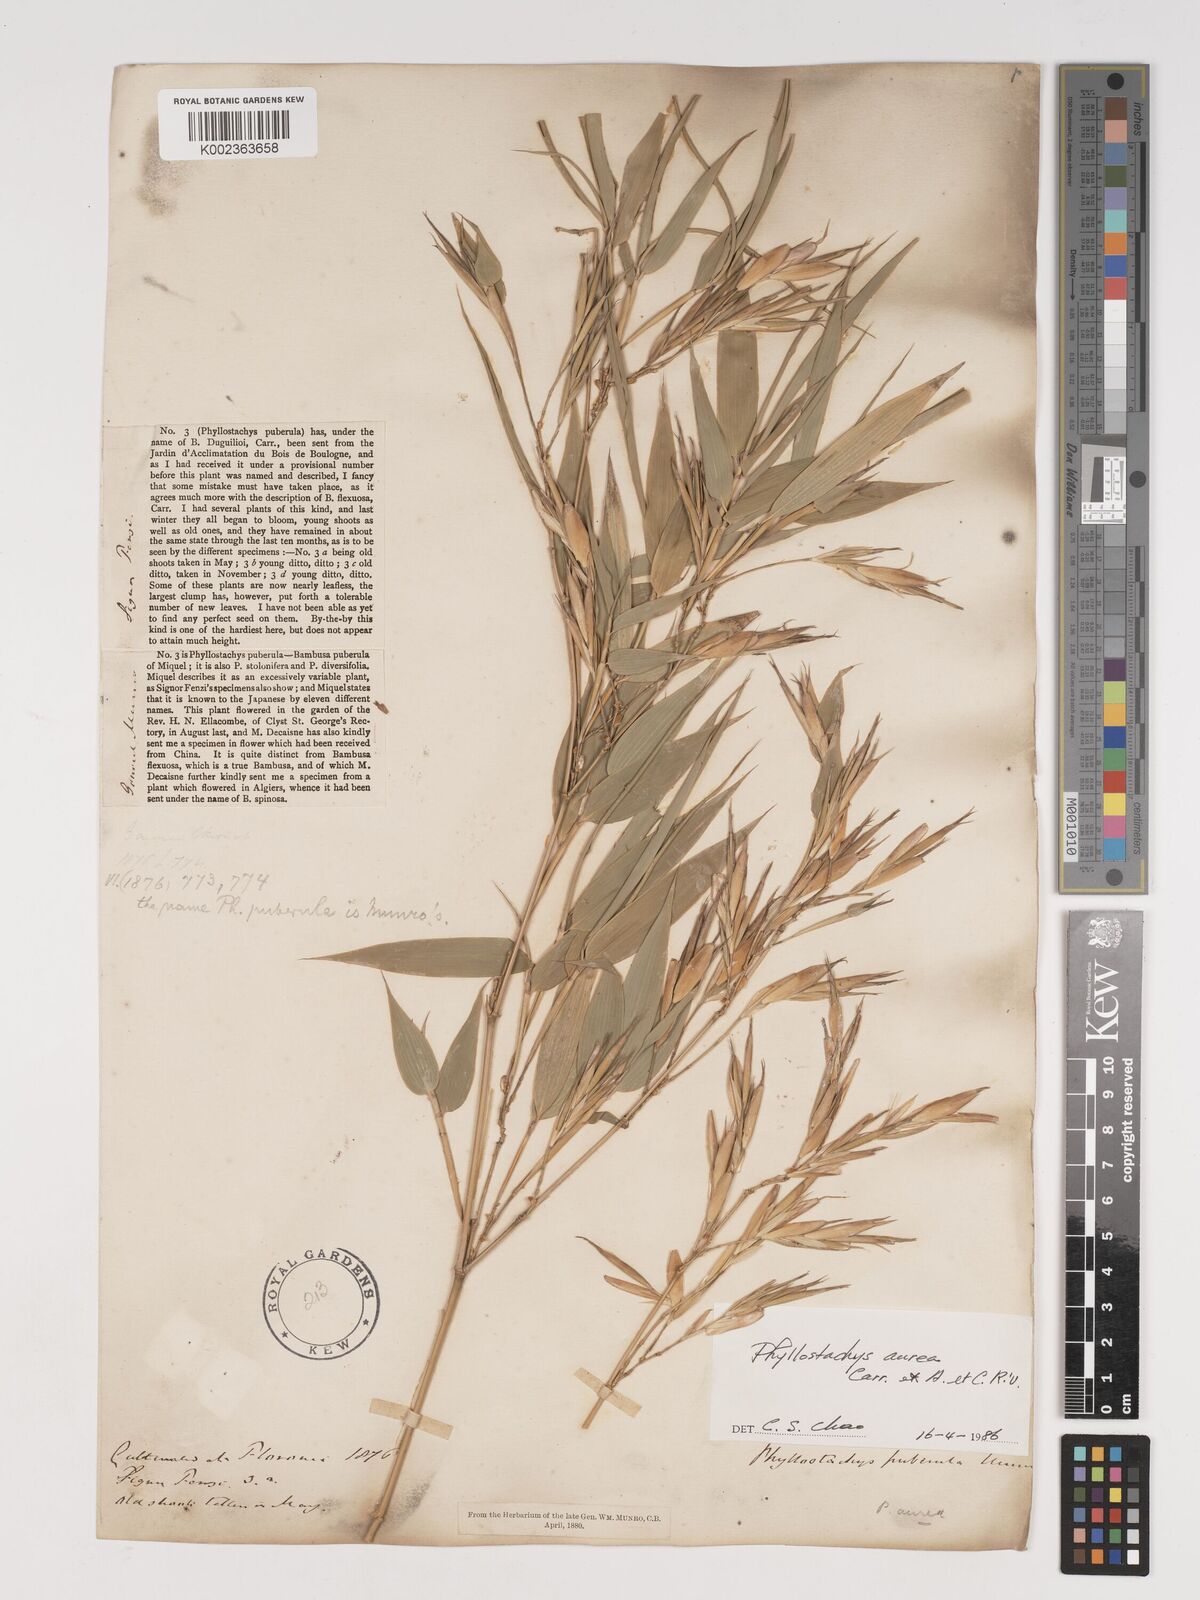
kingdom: Plantae
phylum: Tracheophyta
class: Liliopsida
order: Poales
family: Poaceae
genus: Phyllostachys
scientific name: Phyllostachys aurea
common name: Golden bamboo
